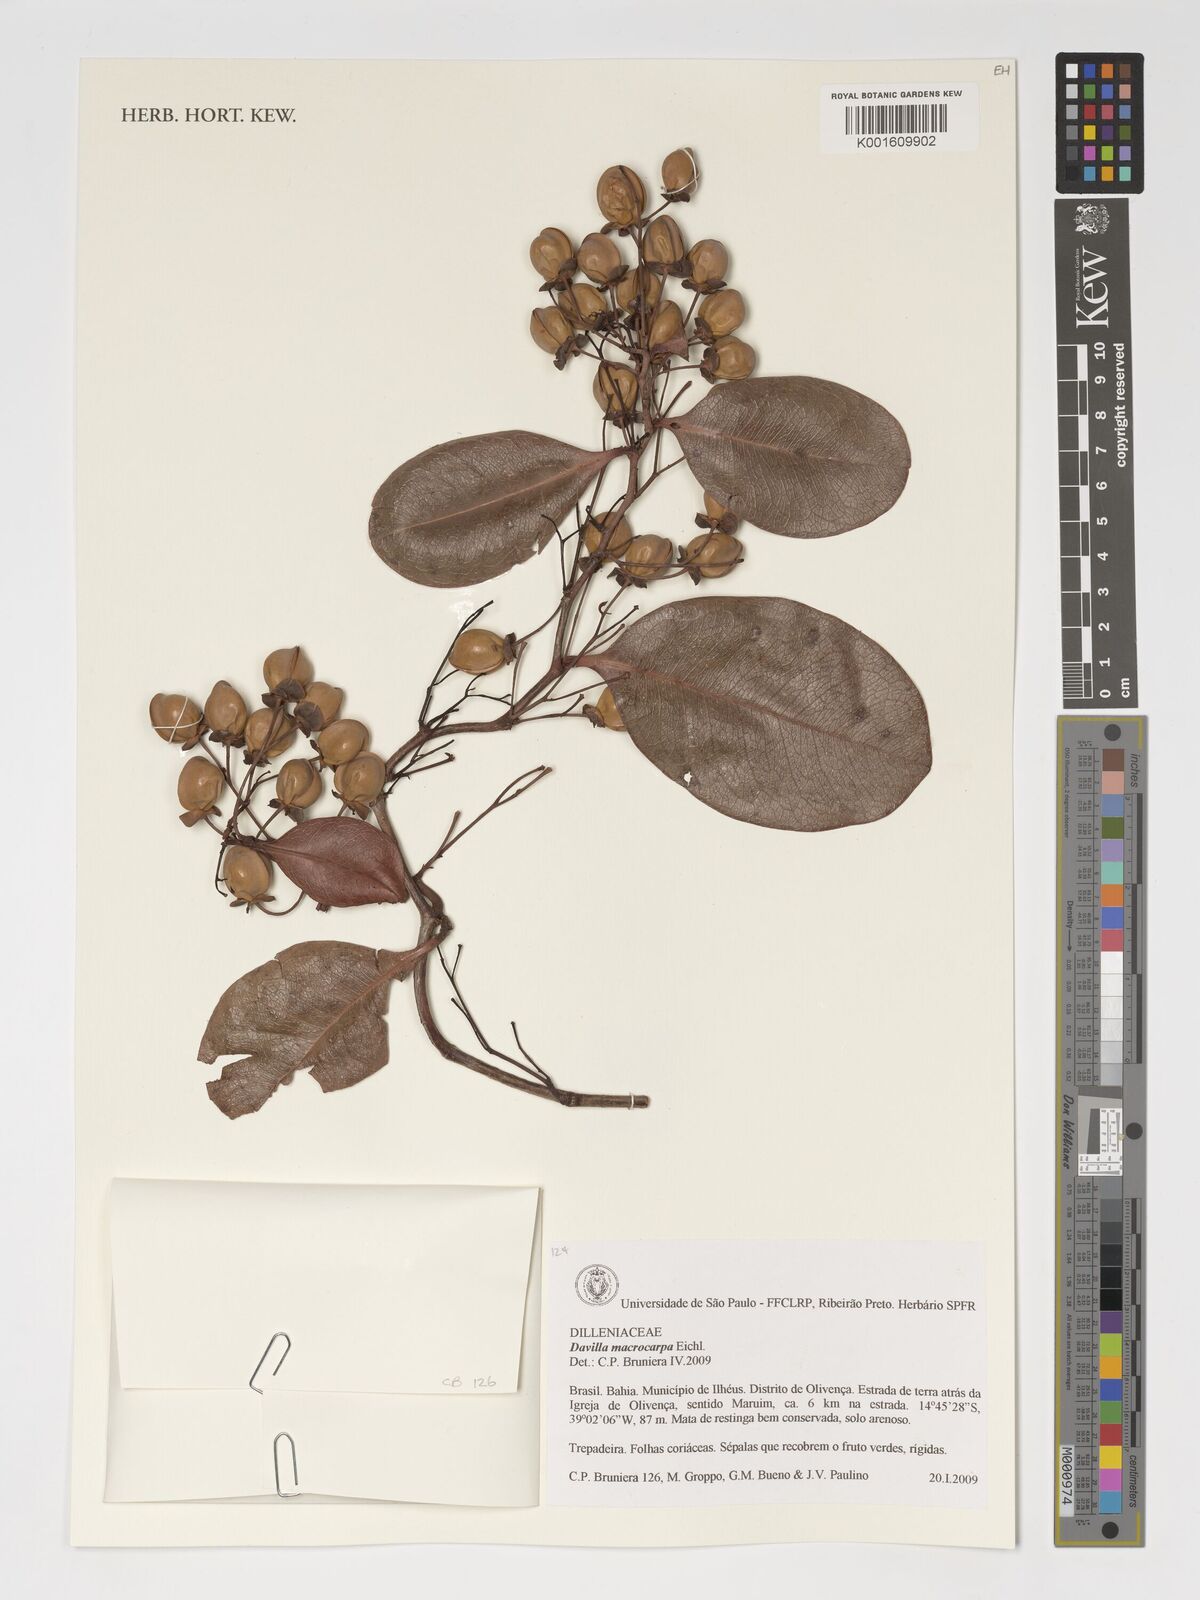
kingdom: Plantae
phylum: Tracheophyta
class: Magnoliopsida
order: Dilleniales
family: Dilleniaceae
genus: Davilla
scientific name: Davilla macrocarpa
